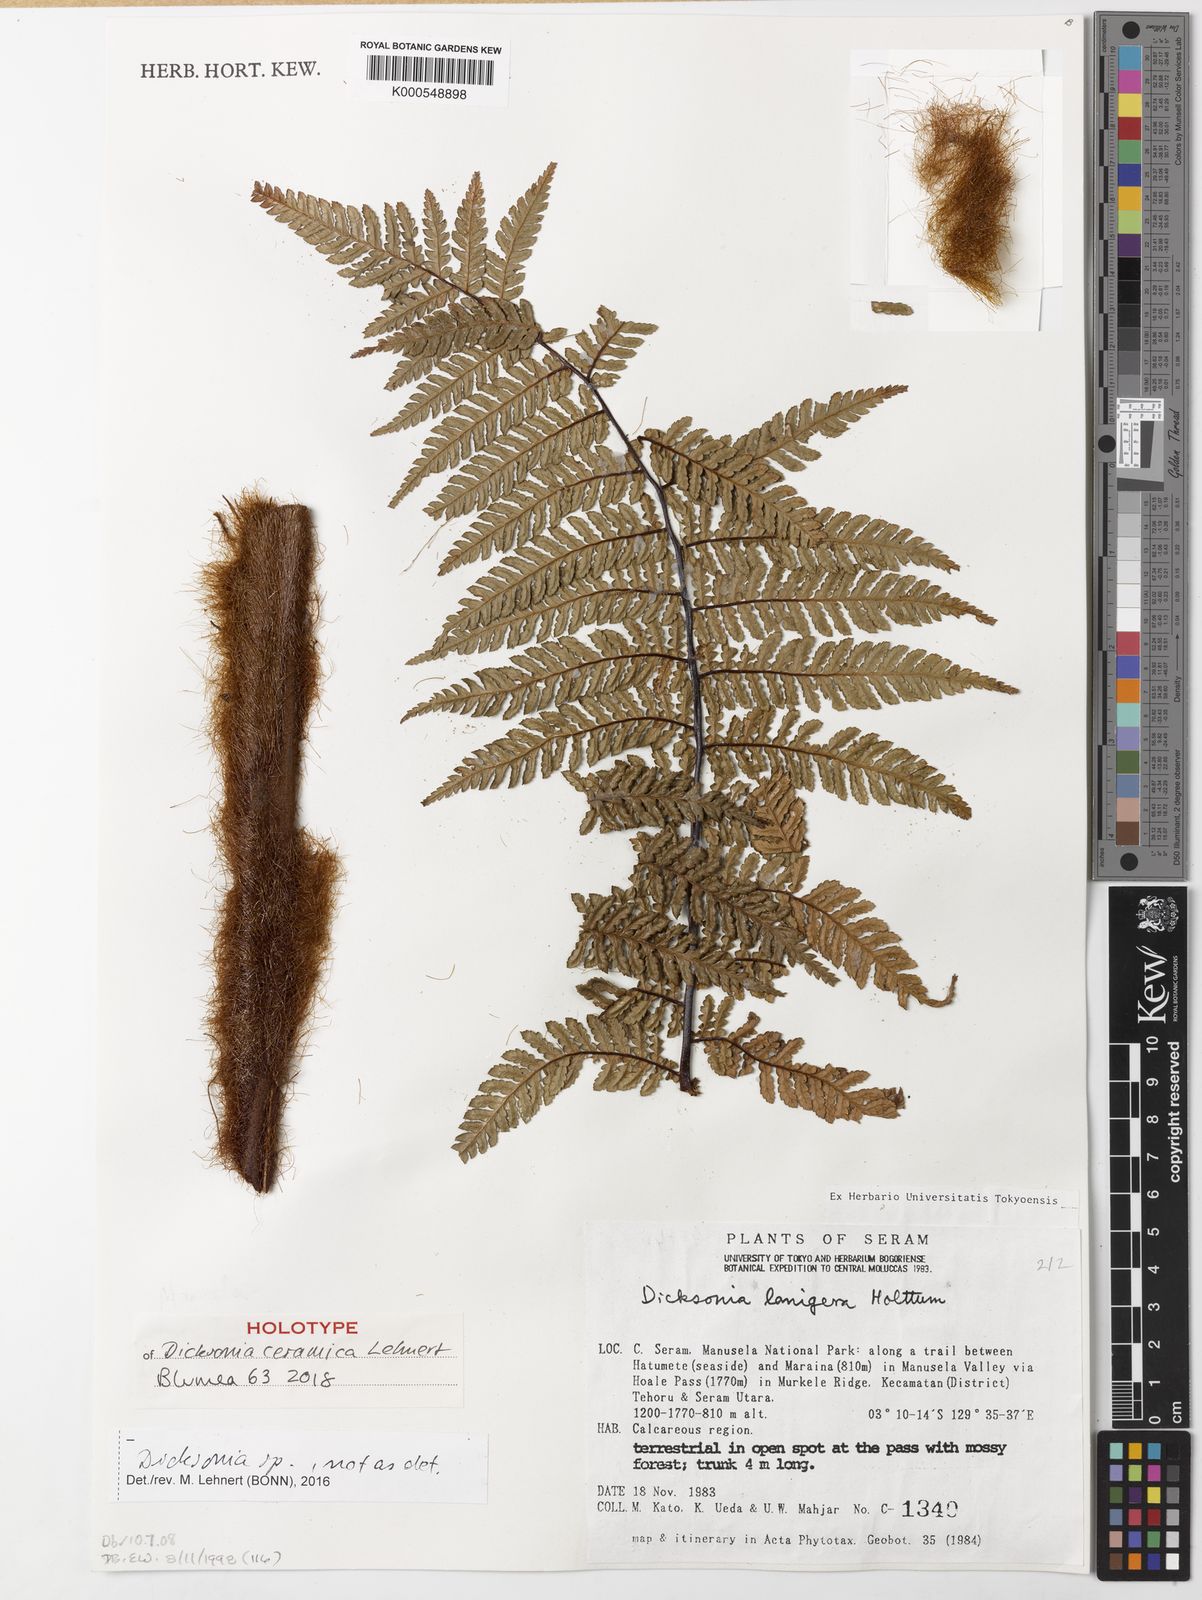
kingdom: Plantae
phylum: Tracheophyta
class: Polypodiopsida
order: Cyatheales
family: Dicksoniaceae
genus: Dicksonia
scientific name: Dicksonia ceramica
